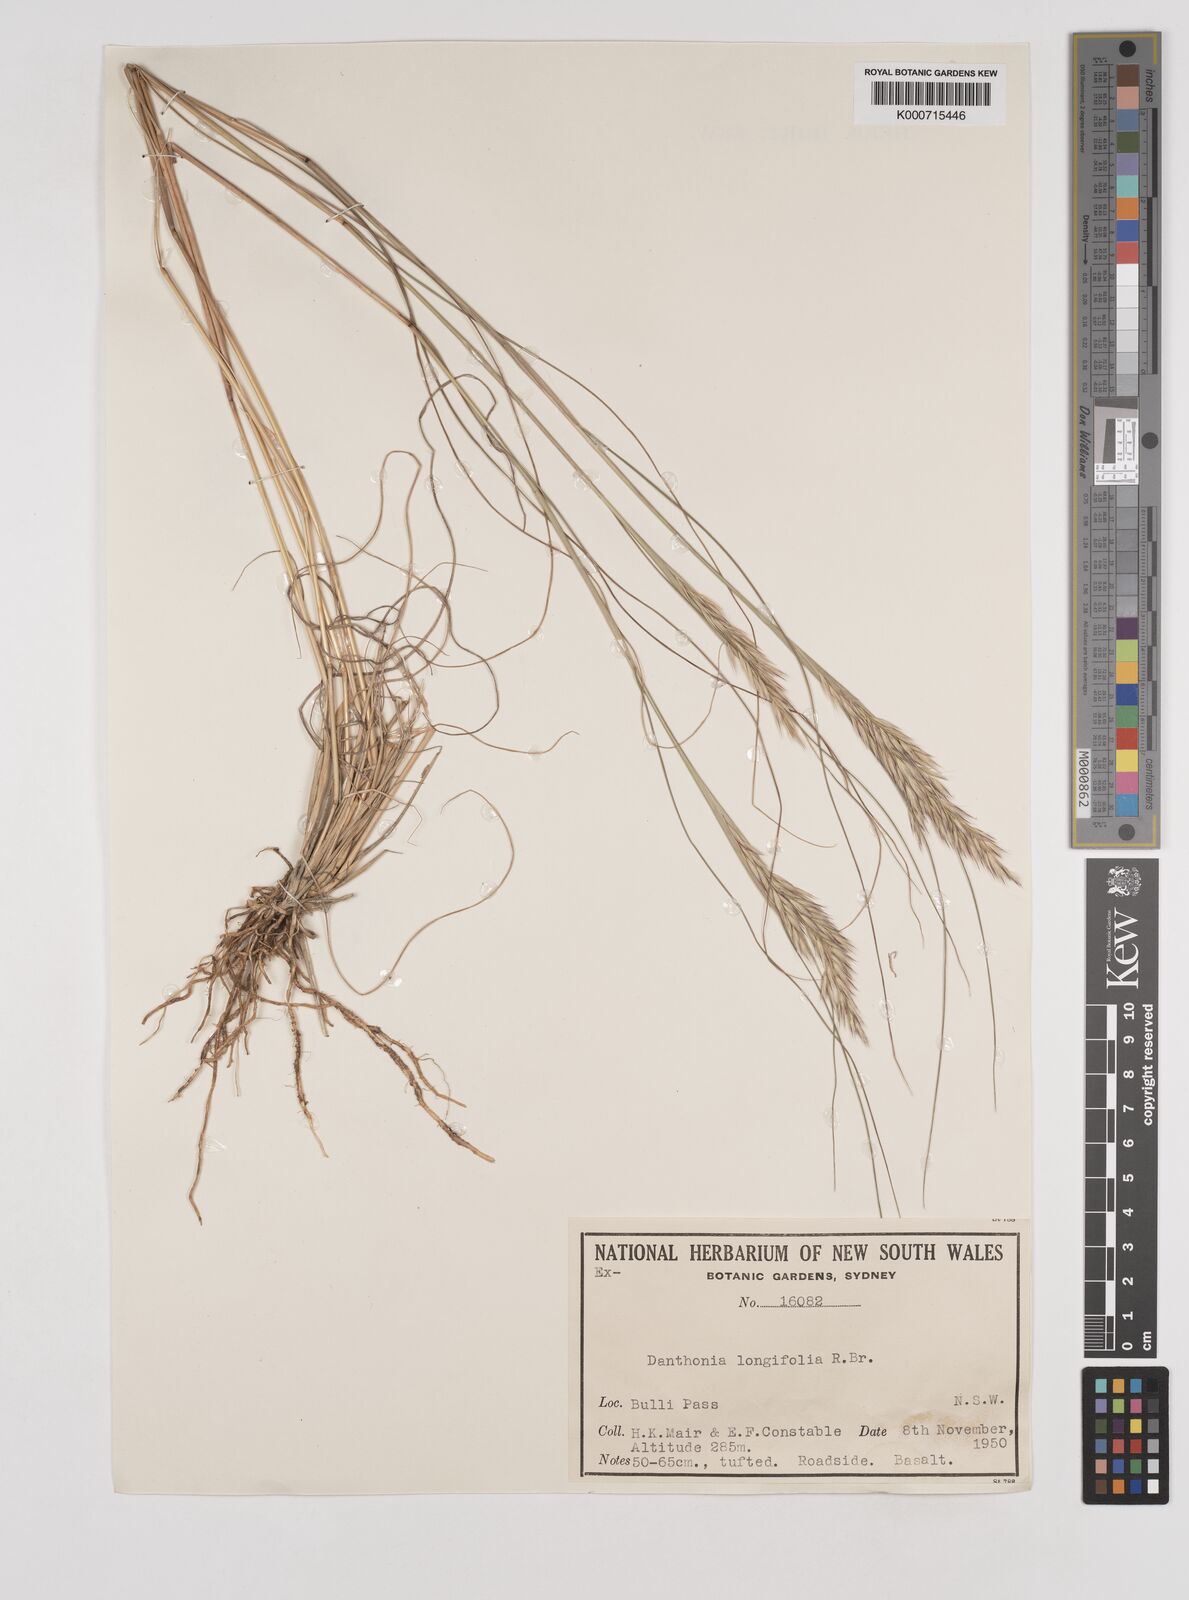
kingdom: Plantae
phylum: Tracheophyta
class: Liliopsida
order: Poales
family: Poaceae
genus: Rytidosperma
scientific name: Rytidosperma longifolium
